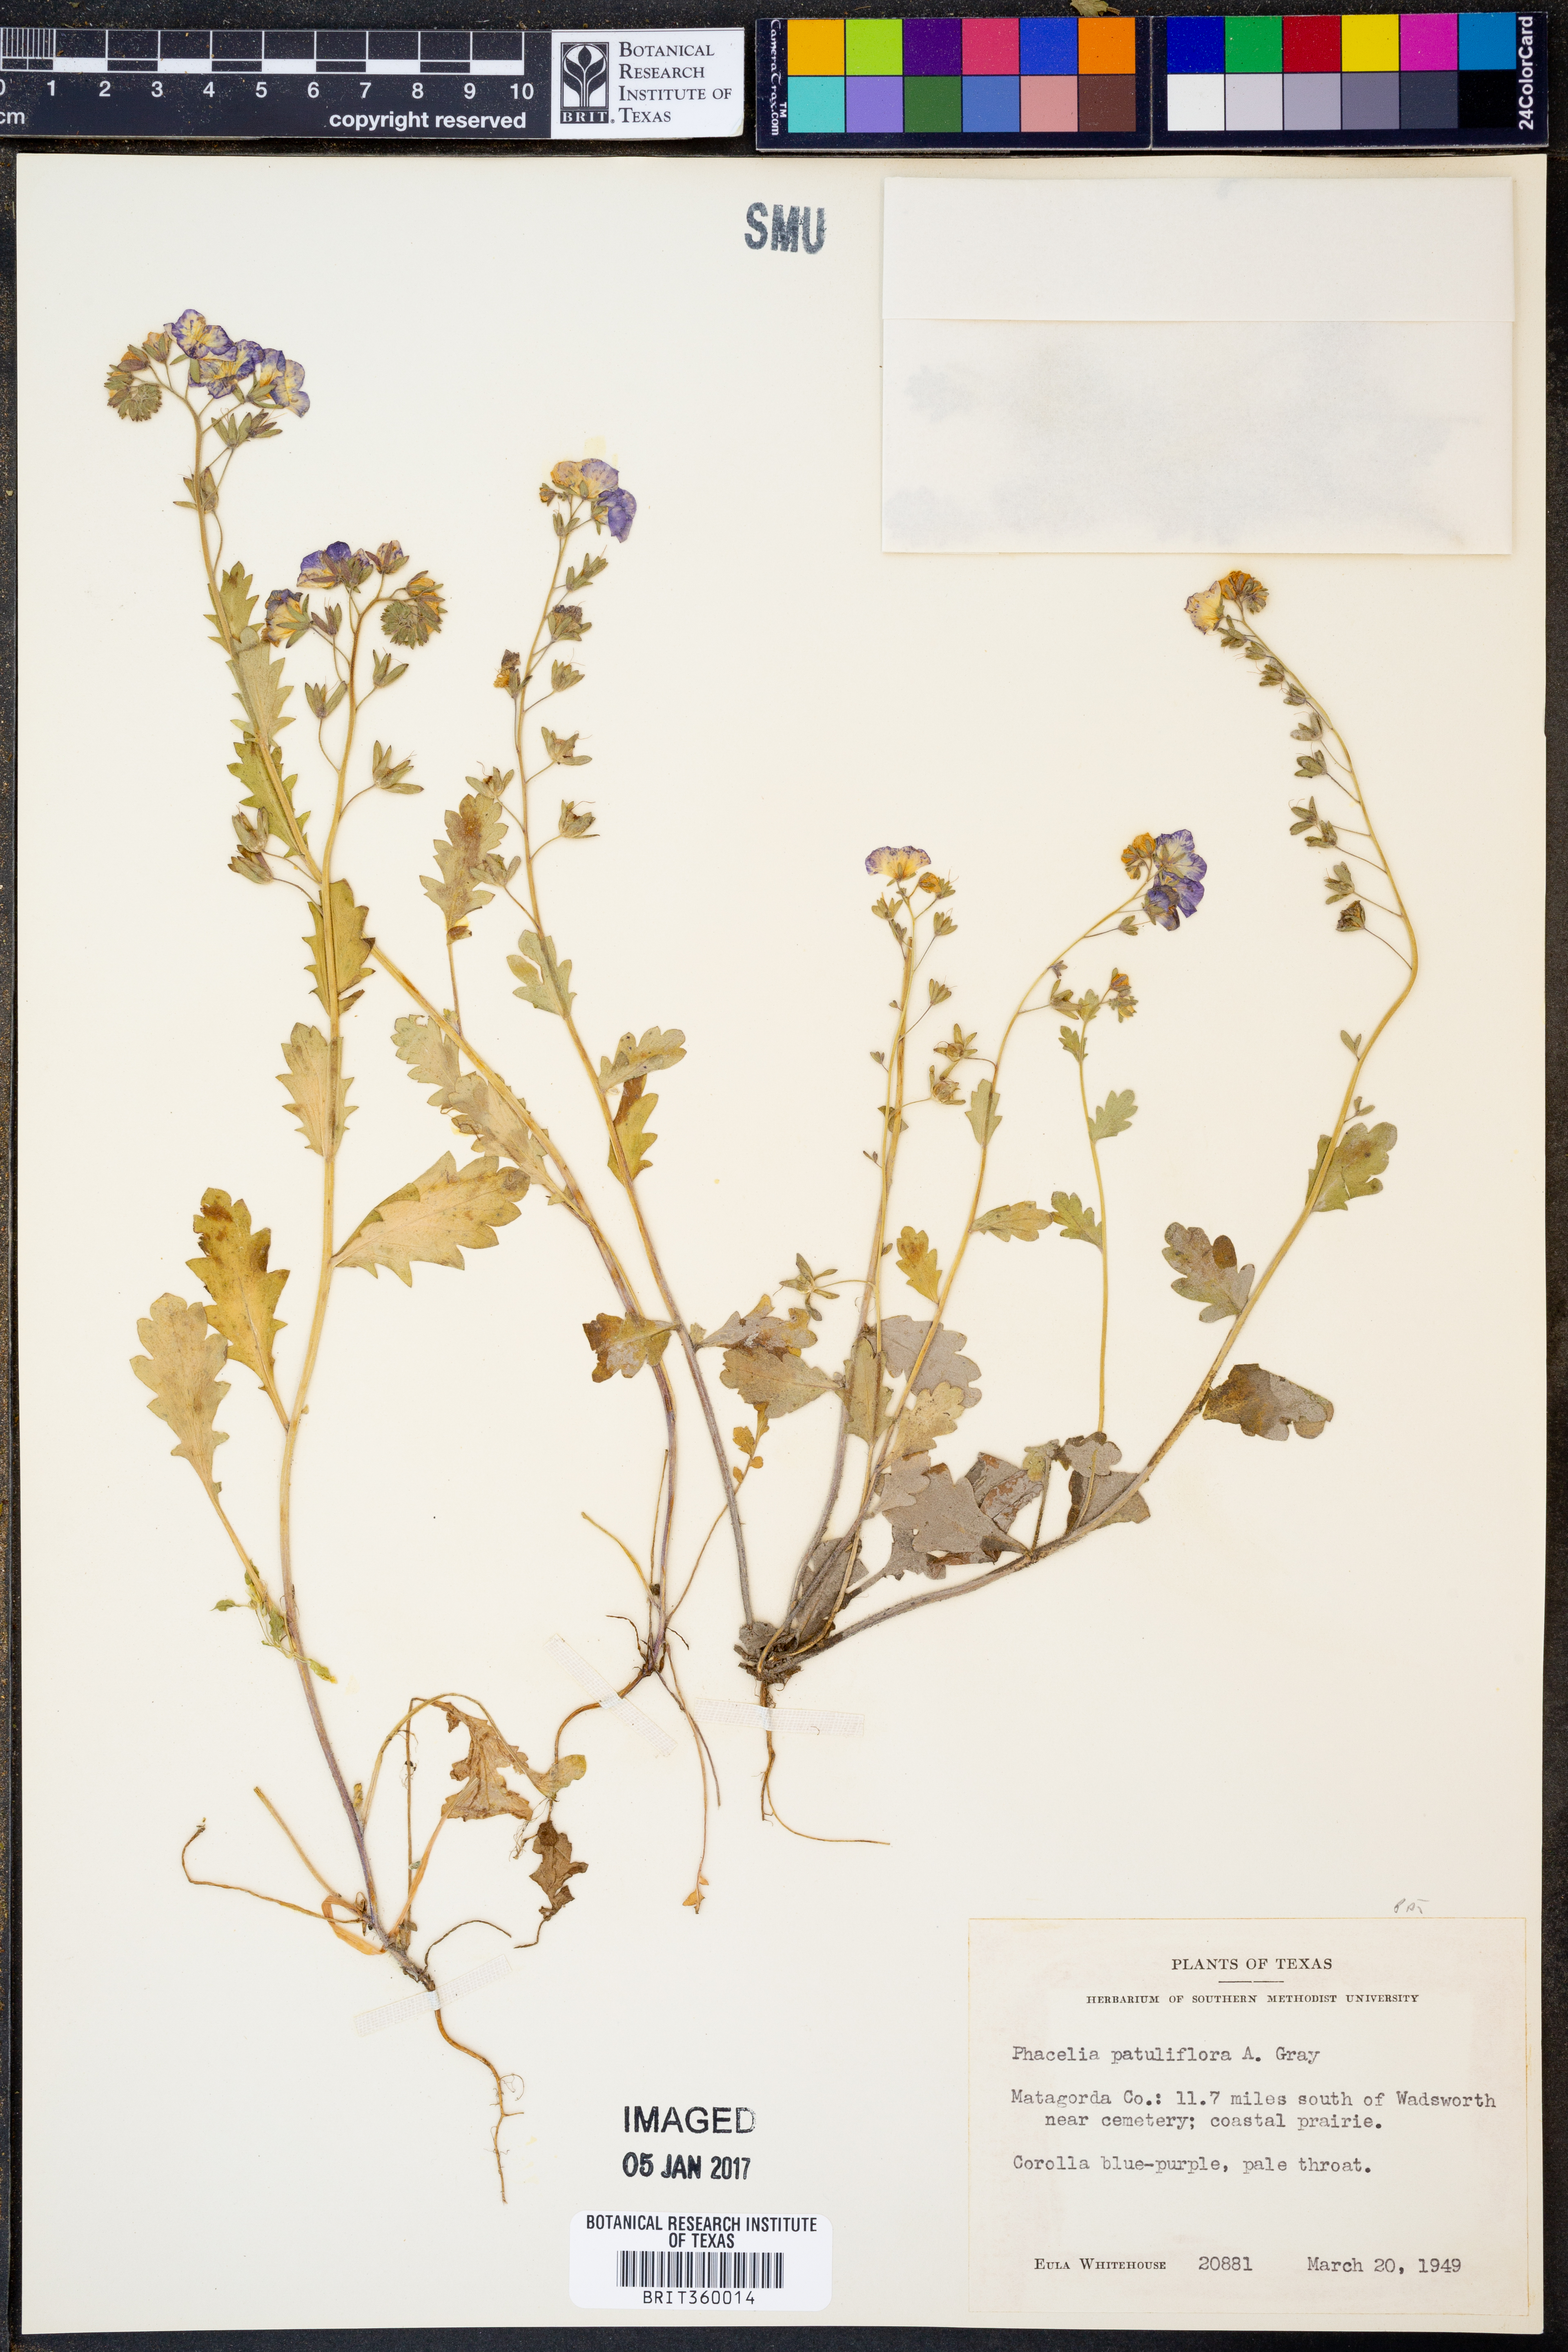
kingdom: Plantae
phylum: Tracheophyta
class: Magnoliopsida
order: Boraginales
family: Hydrophyllaceae
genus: Phacelia
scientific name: Phacelia patuliflora
